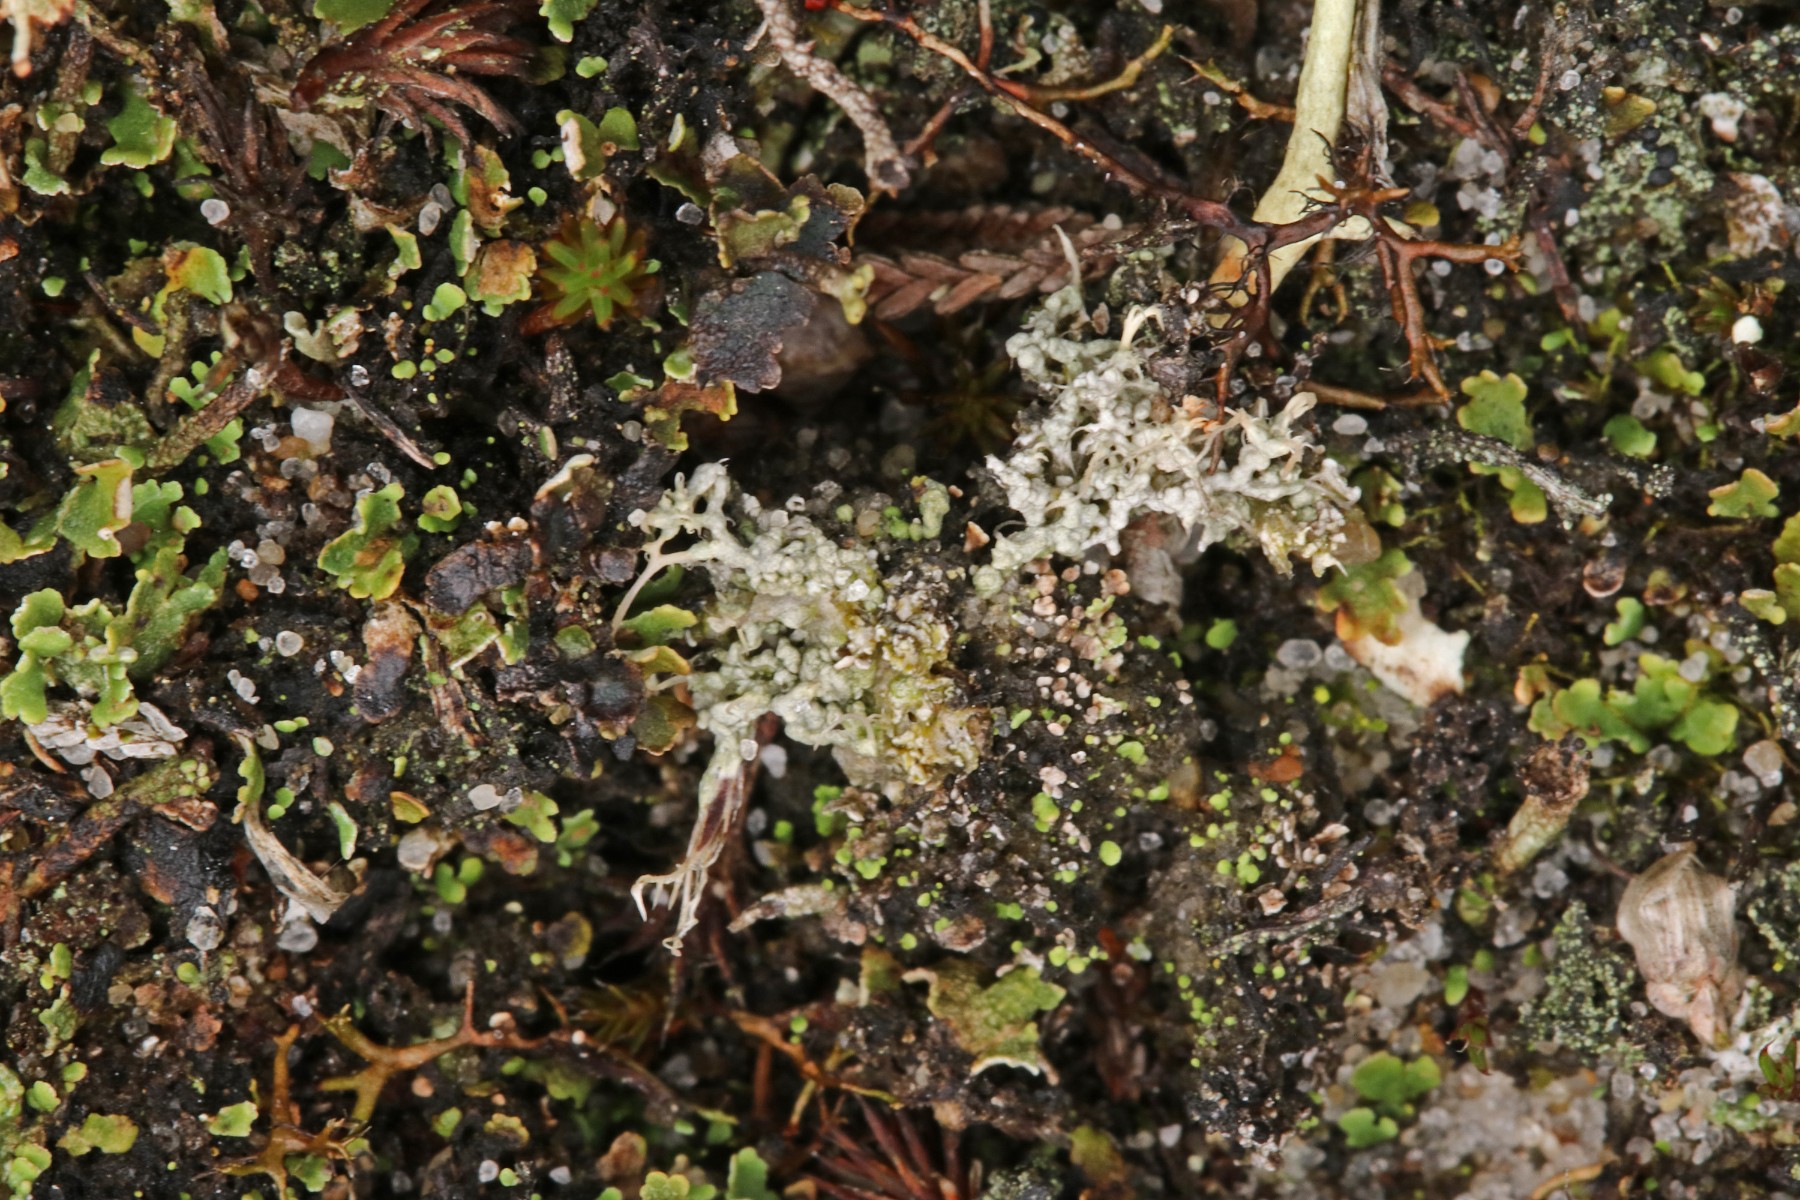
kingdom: Fungi
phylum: Ascomycota
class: Lecanoromycetes
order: Pertusariales
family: Ochrolechiaceae
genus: Ochrolechia
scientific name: Ochrolechia frigida
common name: fjeld-blegskivelav
